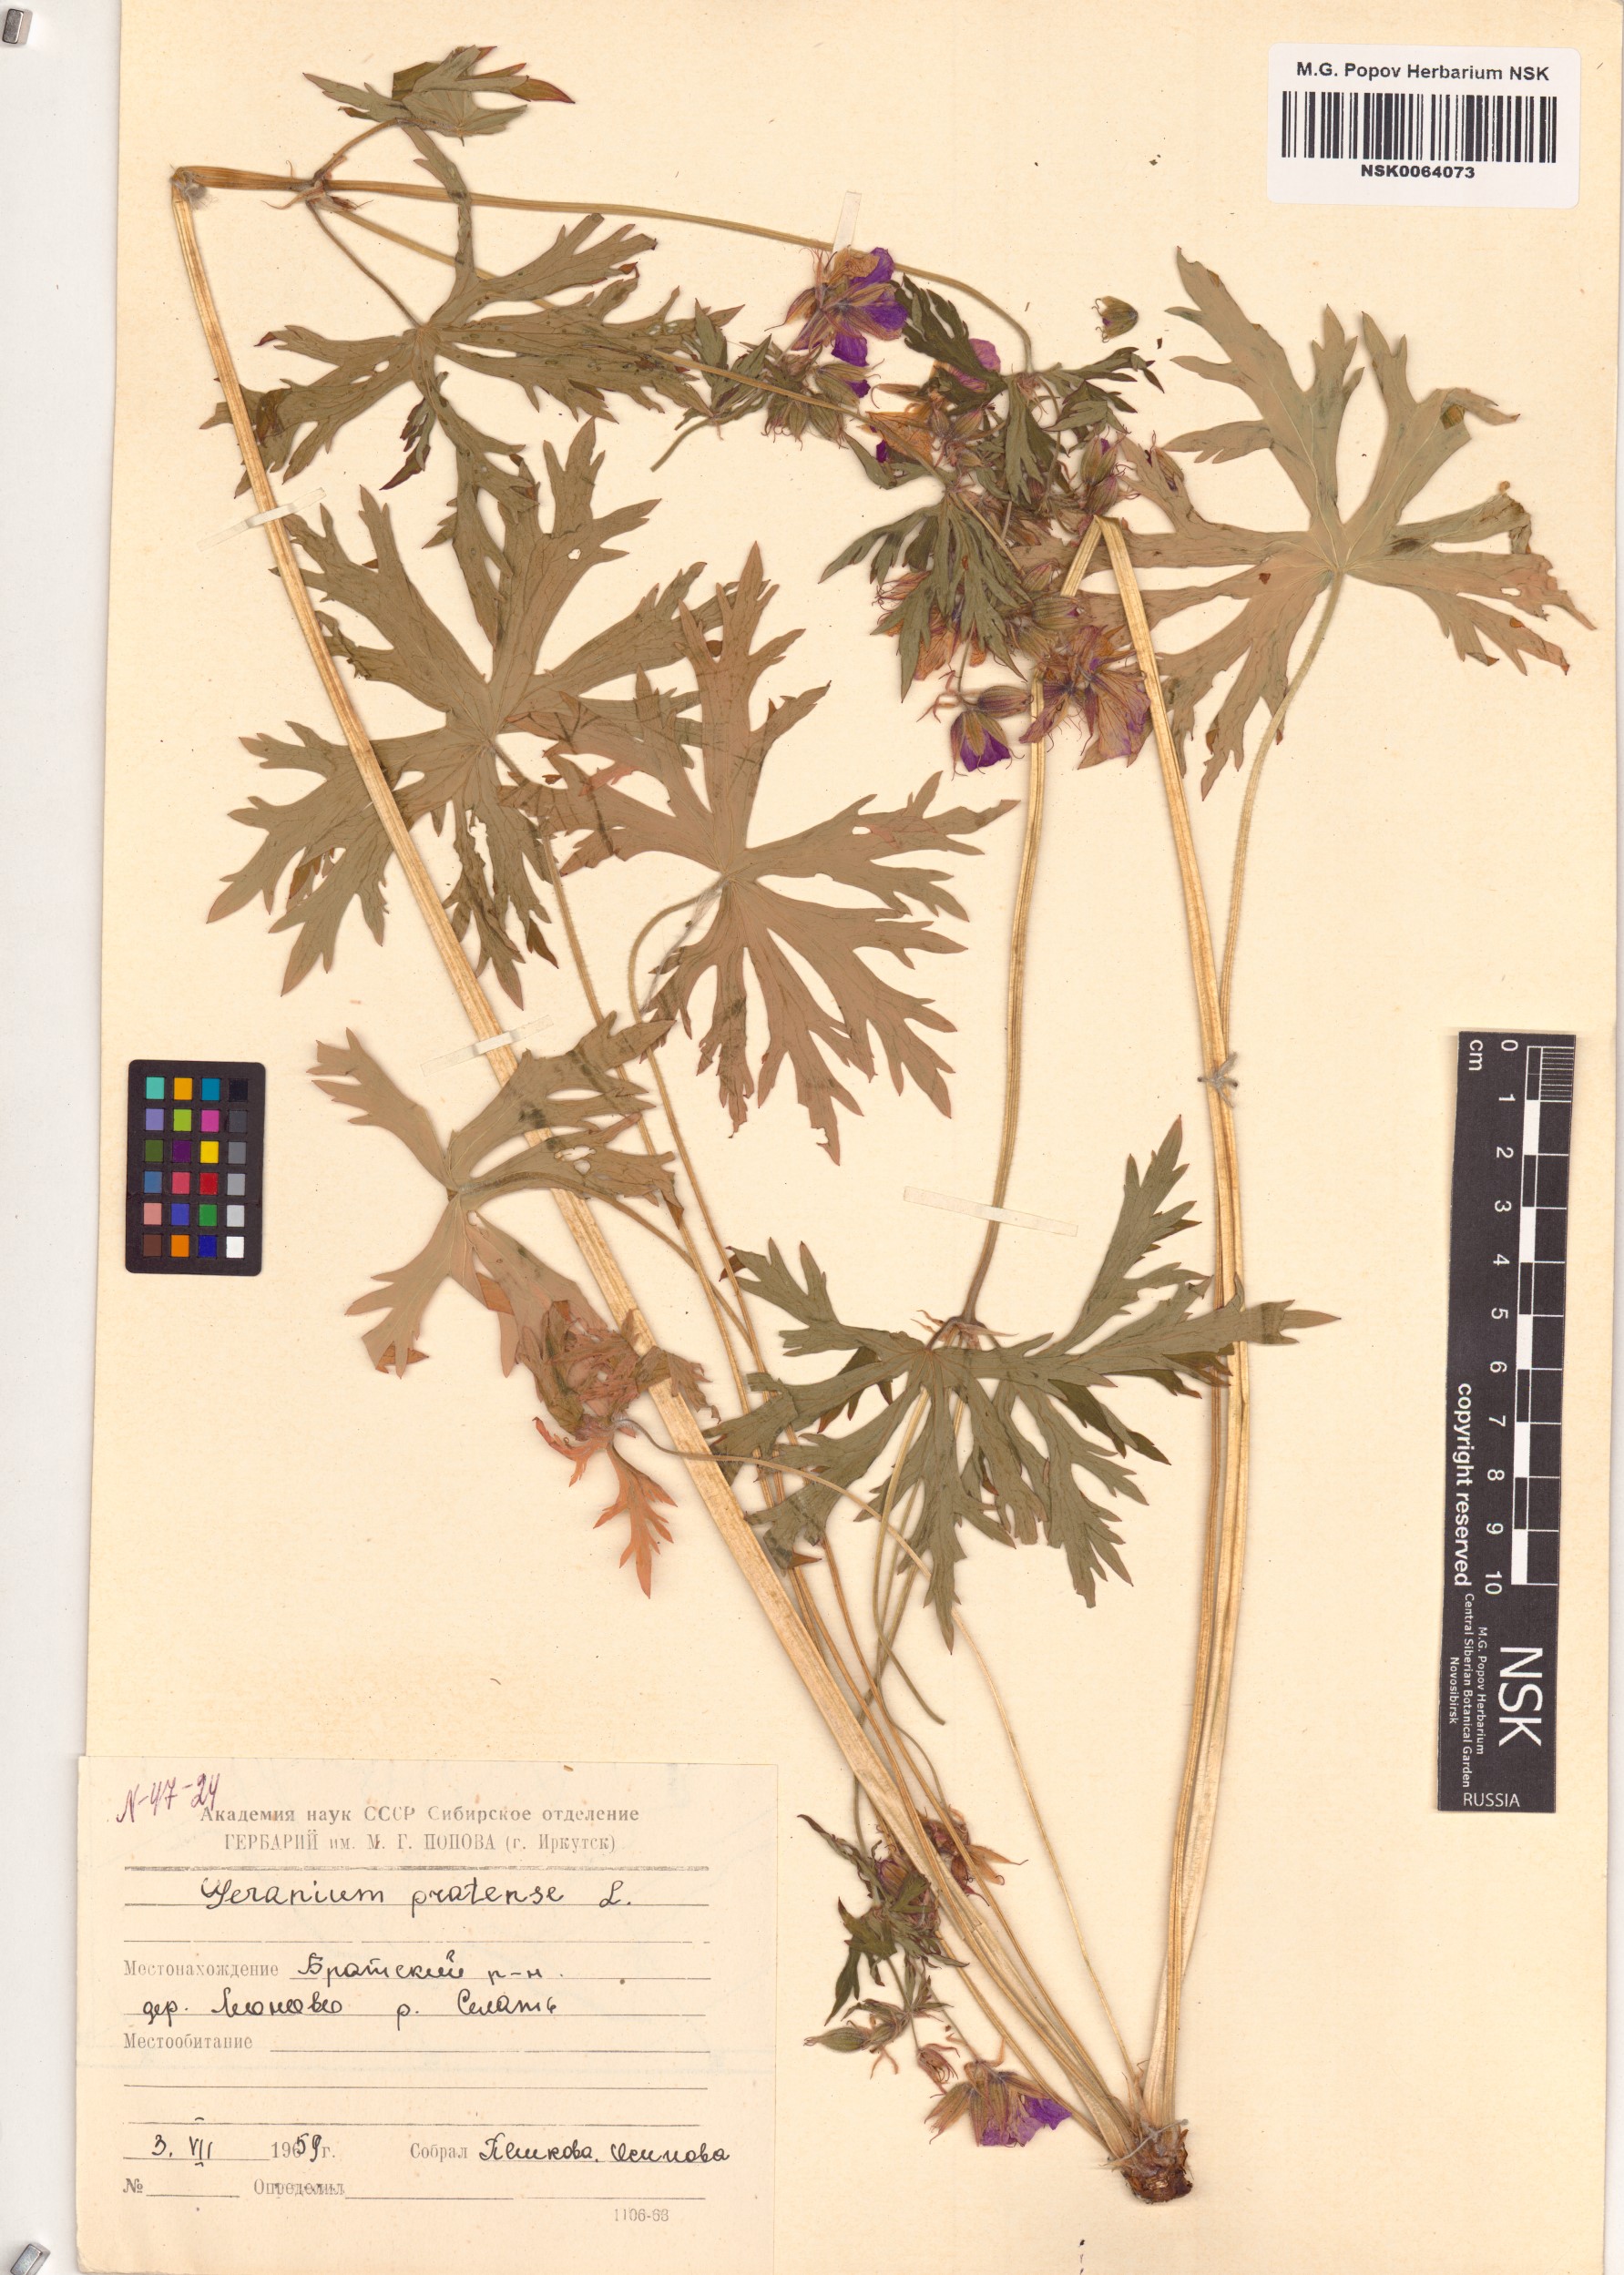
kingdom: Plantae
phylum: Tracheophyta
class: Magnoliopsida
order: Geraniales
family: Geraniaceae
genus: Geranium
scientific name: Geranium pratense
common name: Meadow crane's-bill
